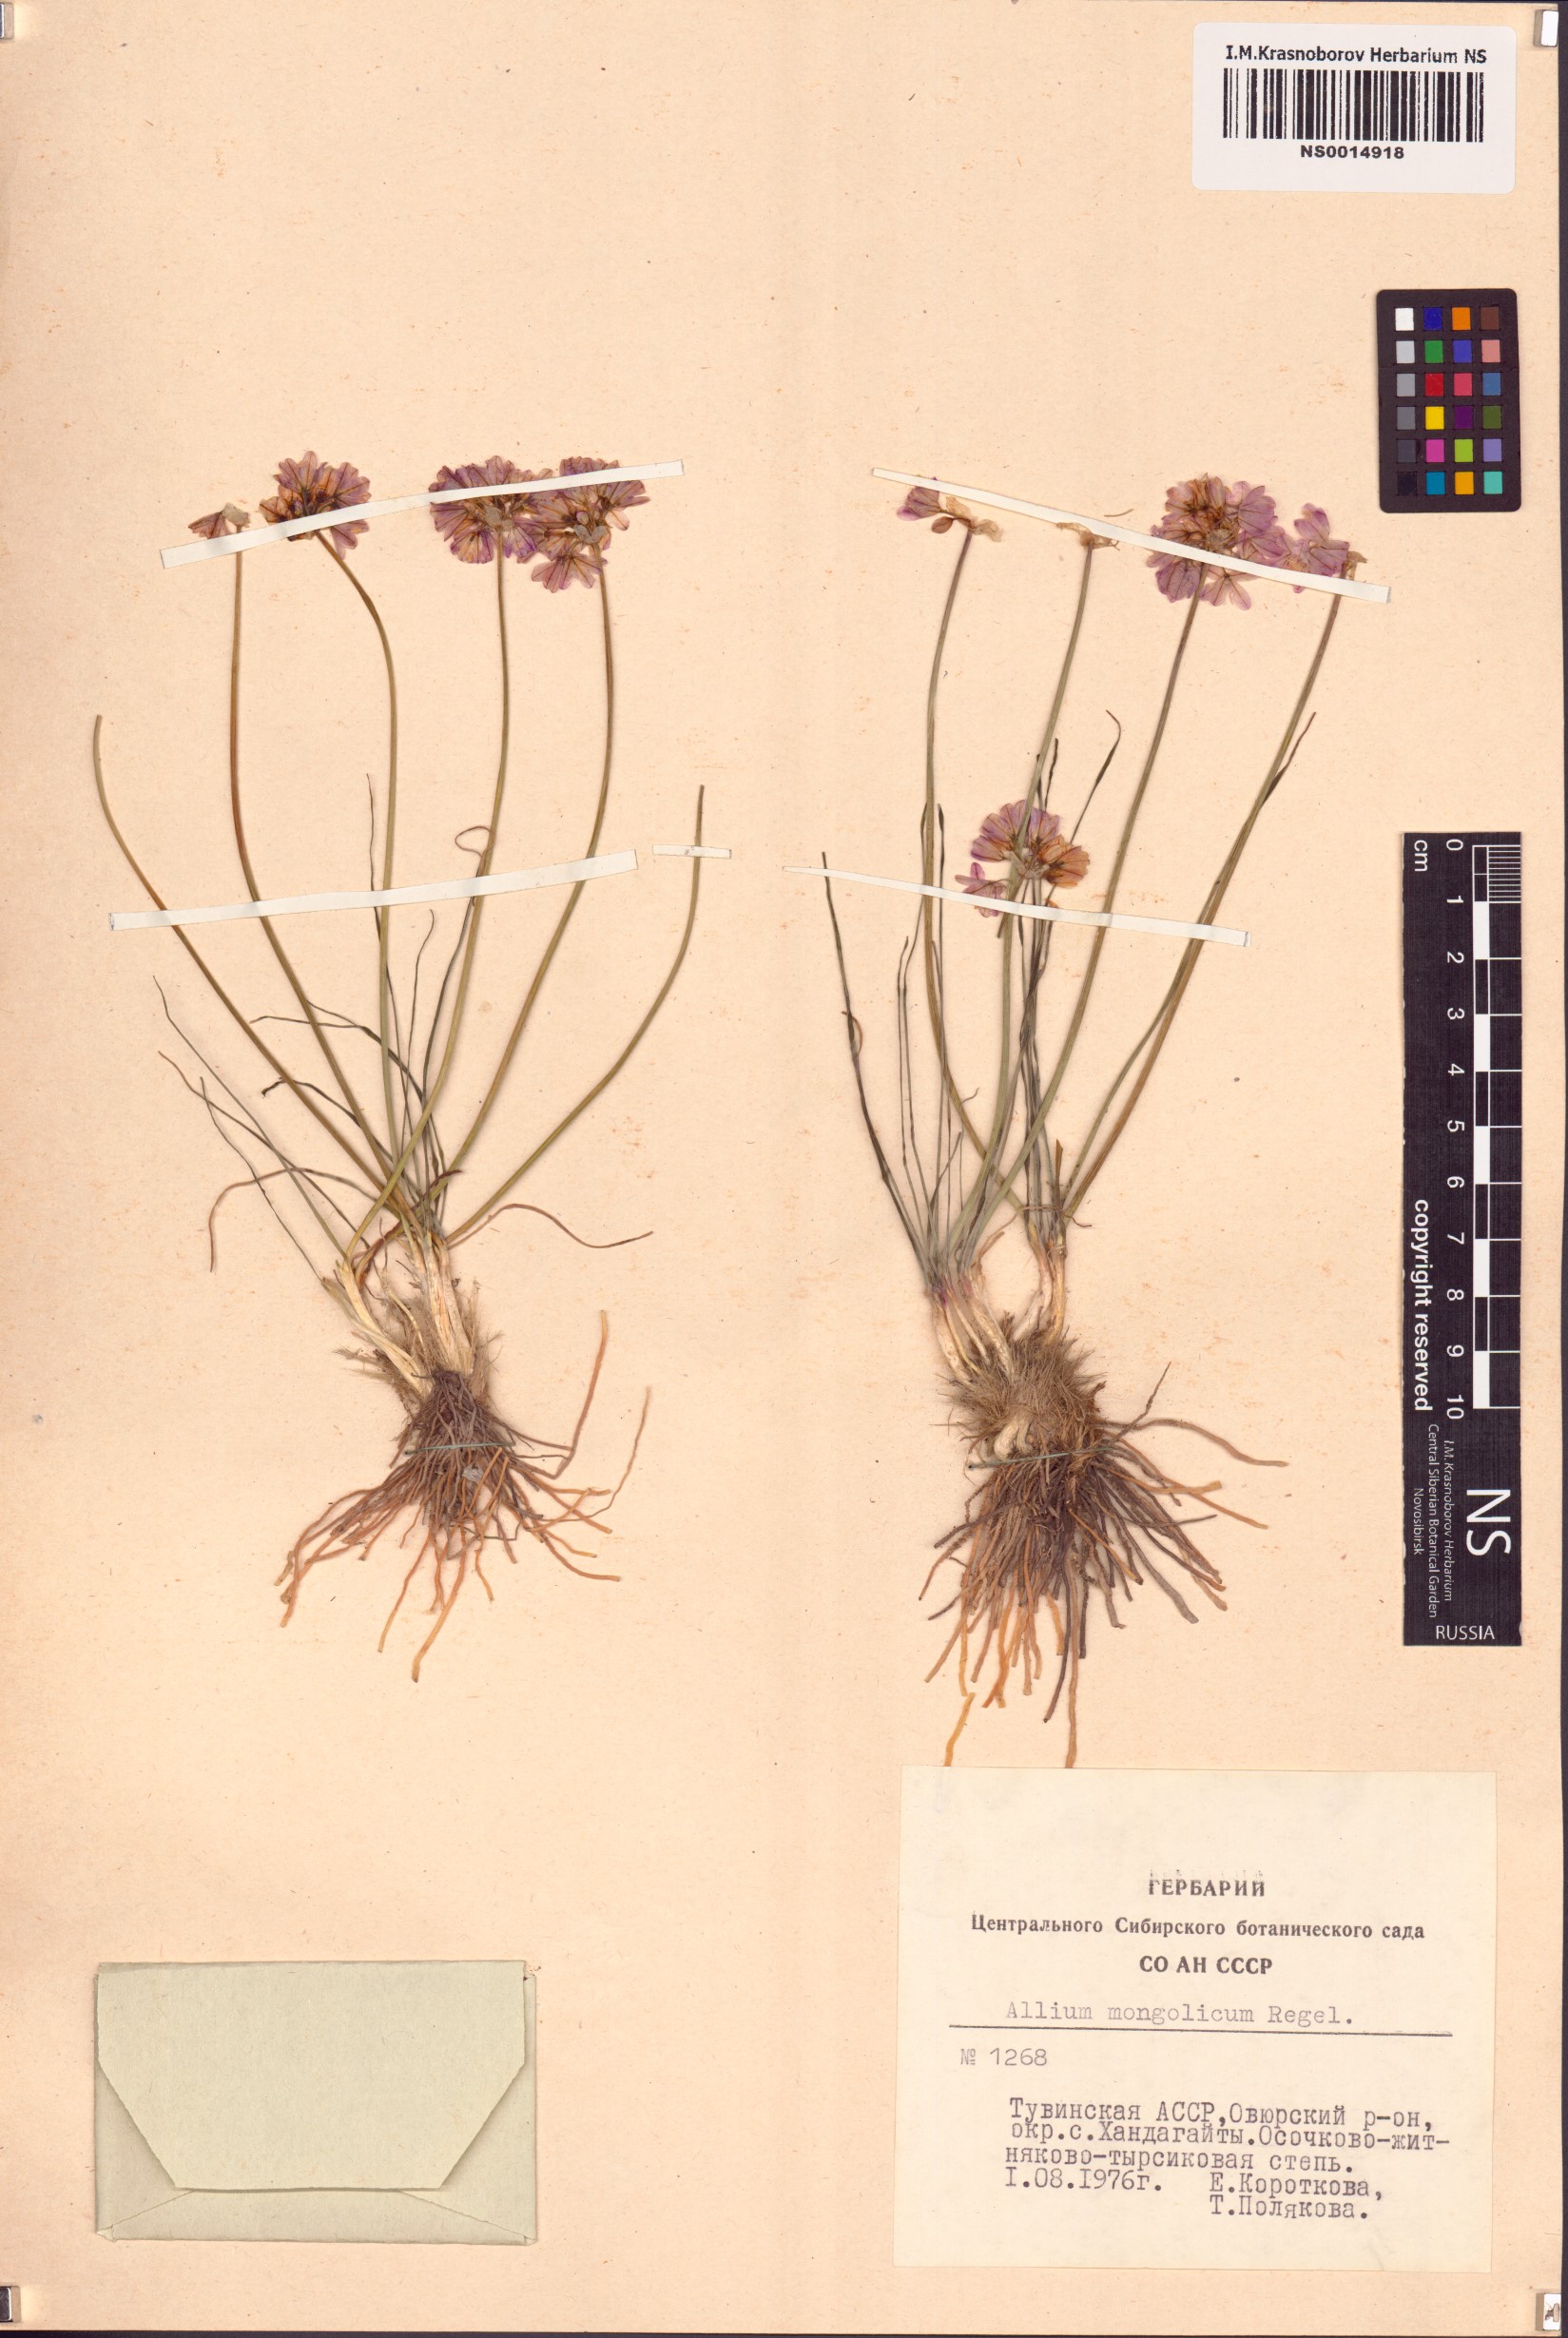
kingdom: Plantae
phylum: Tracheophyta
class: Liliopsida
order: Asparagales
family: Amaryllidaceae
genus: Allium
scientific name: Allium mongolicum
